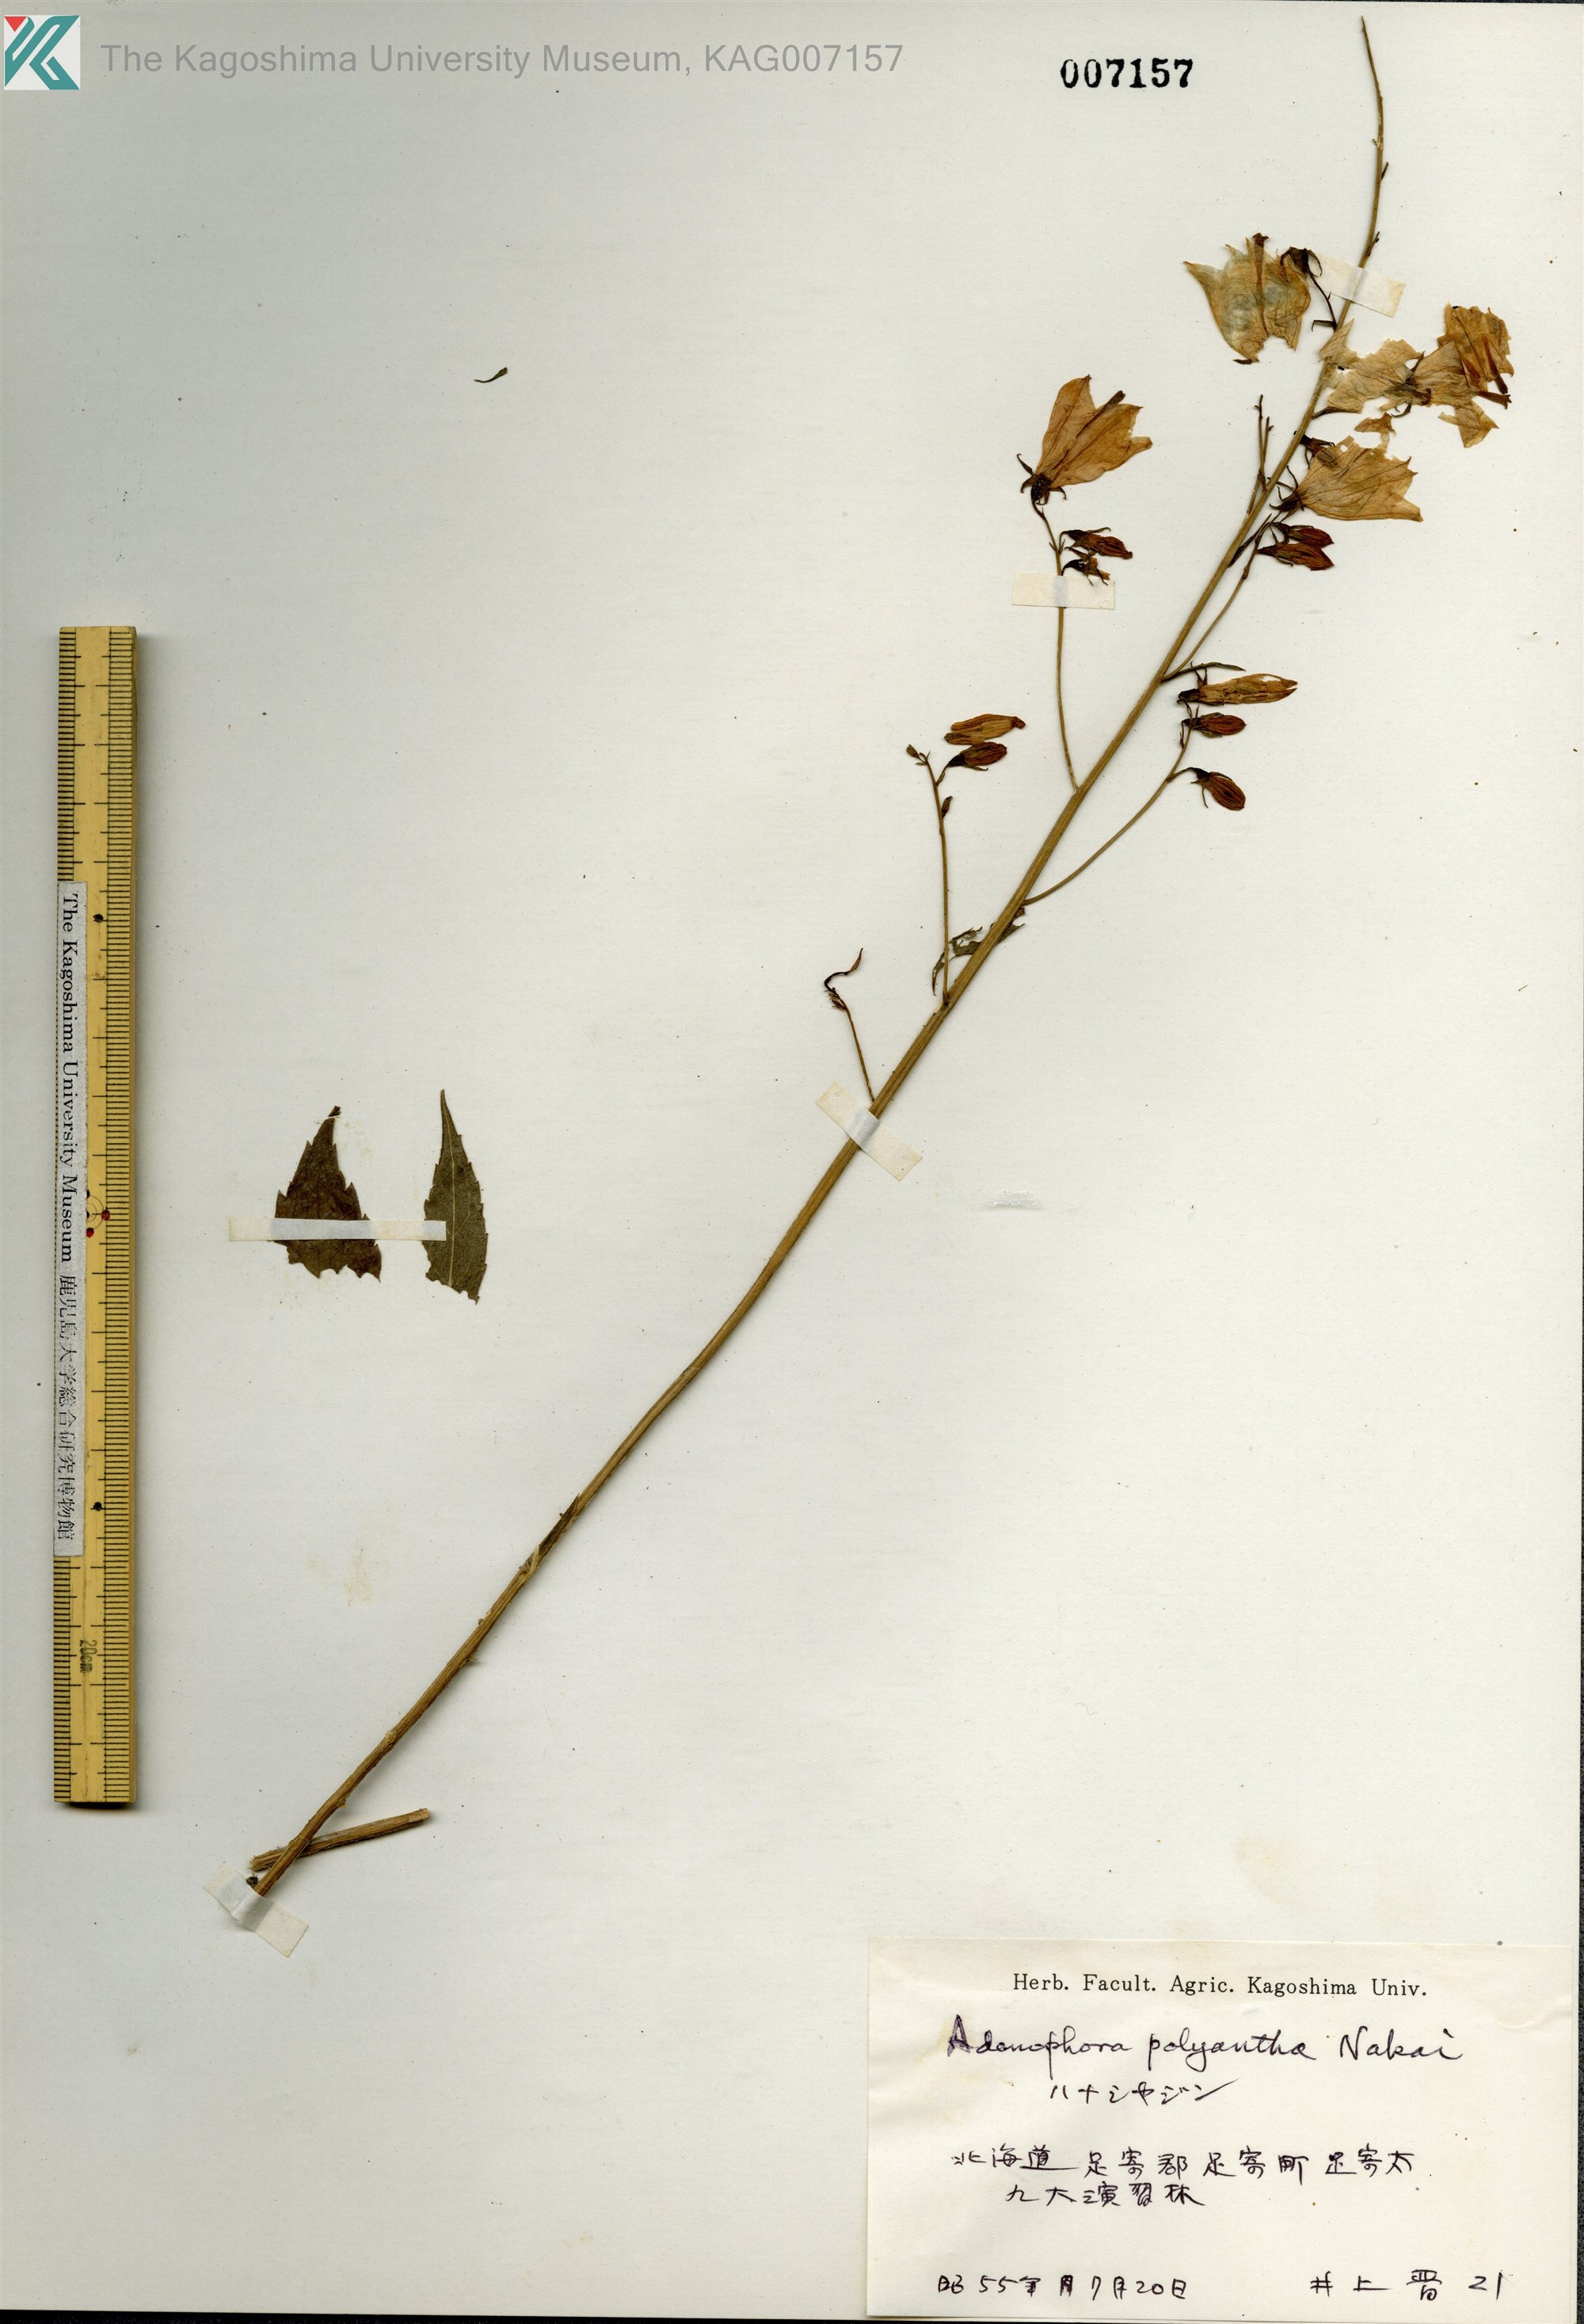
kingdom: Plantae
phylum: Tracheophyta
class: Magnoliopsida
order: Asterales
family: Campanulaceae
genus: Adenophora
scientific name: Adenophora polyantha
